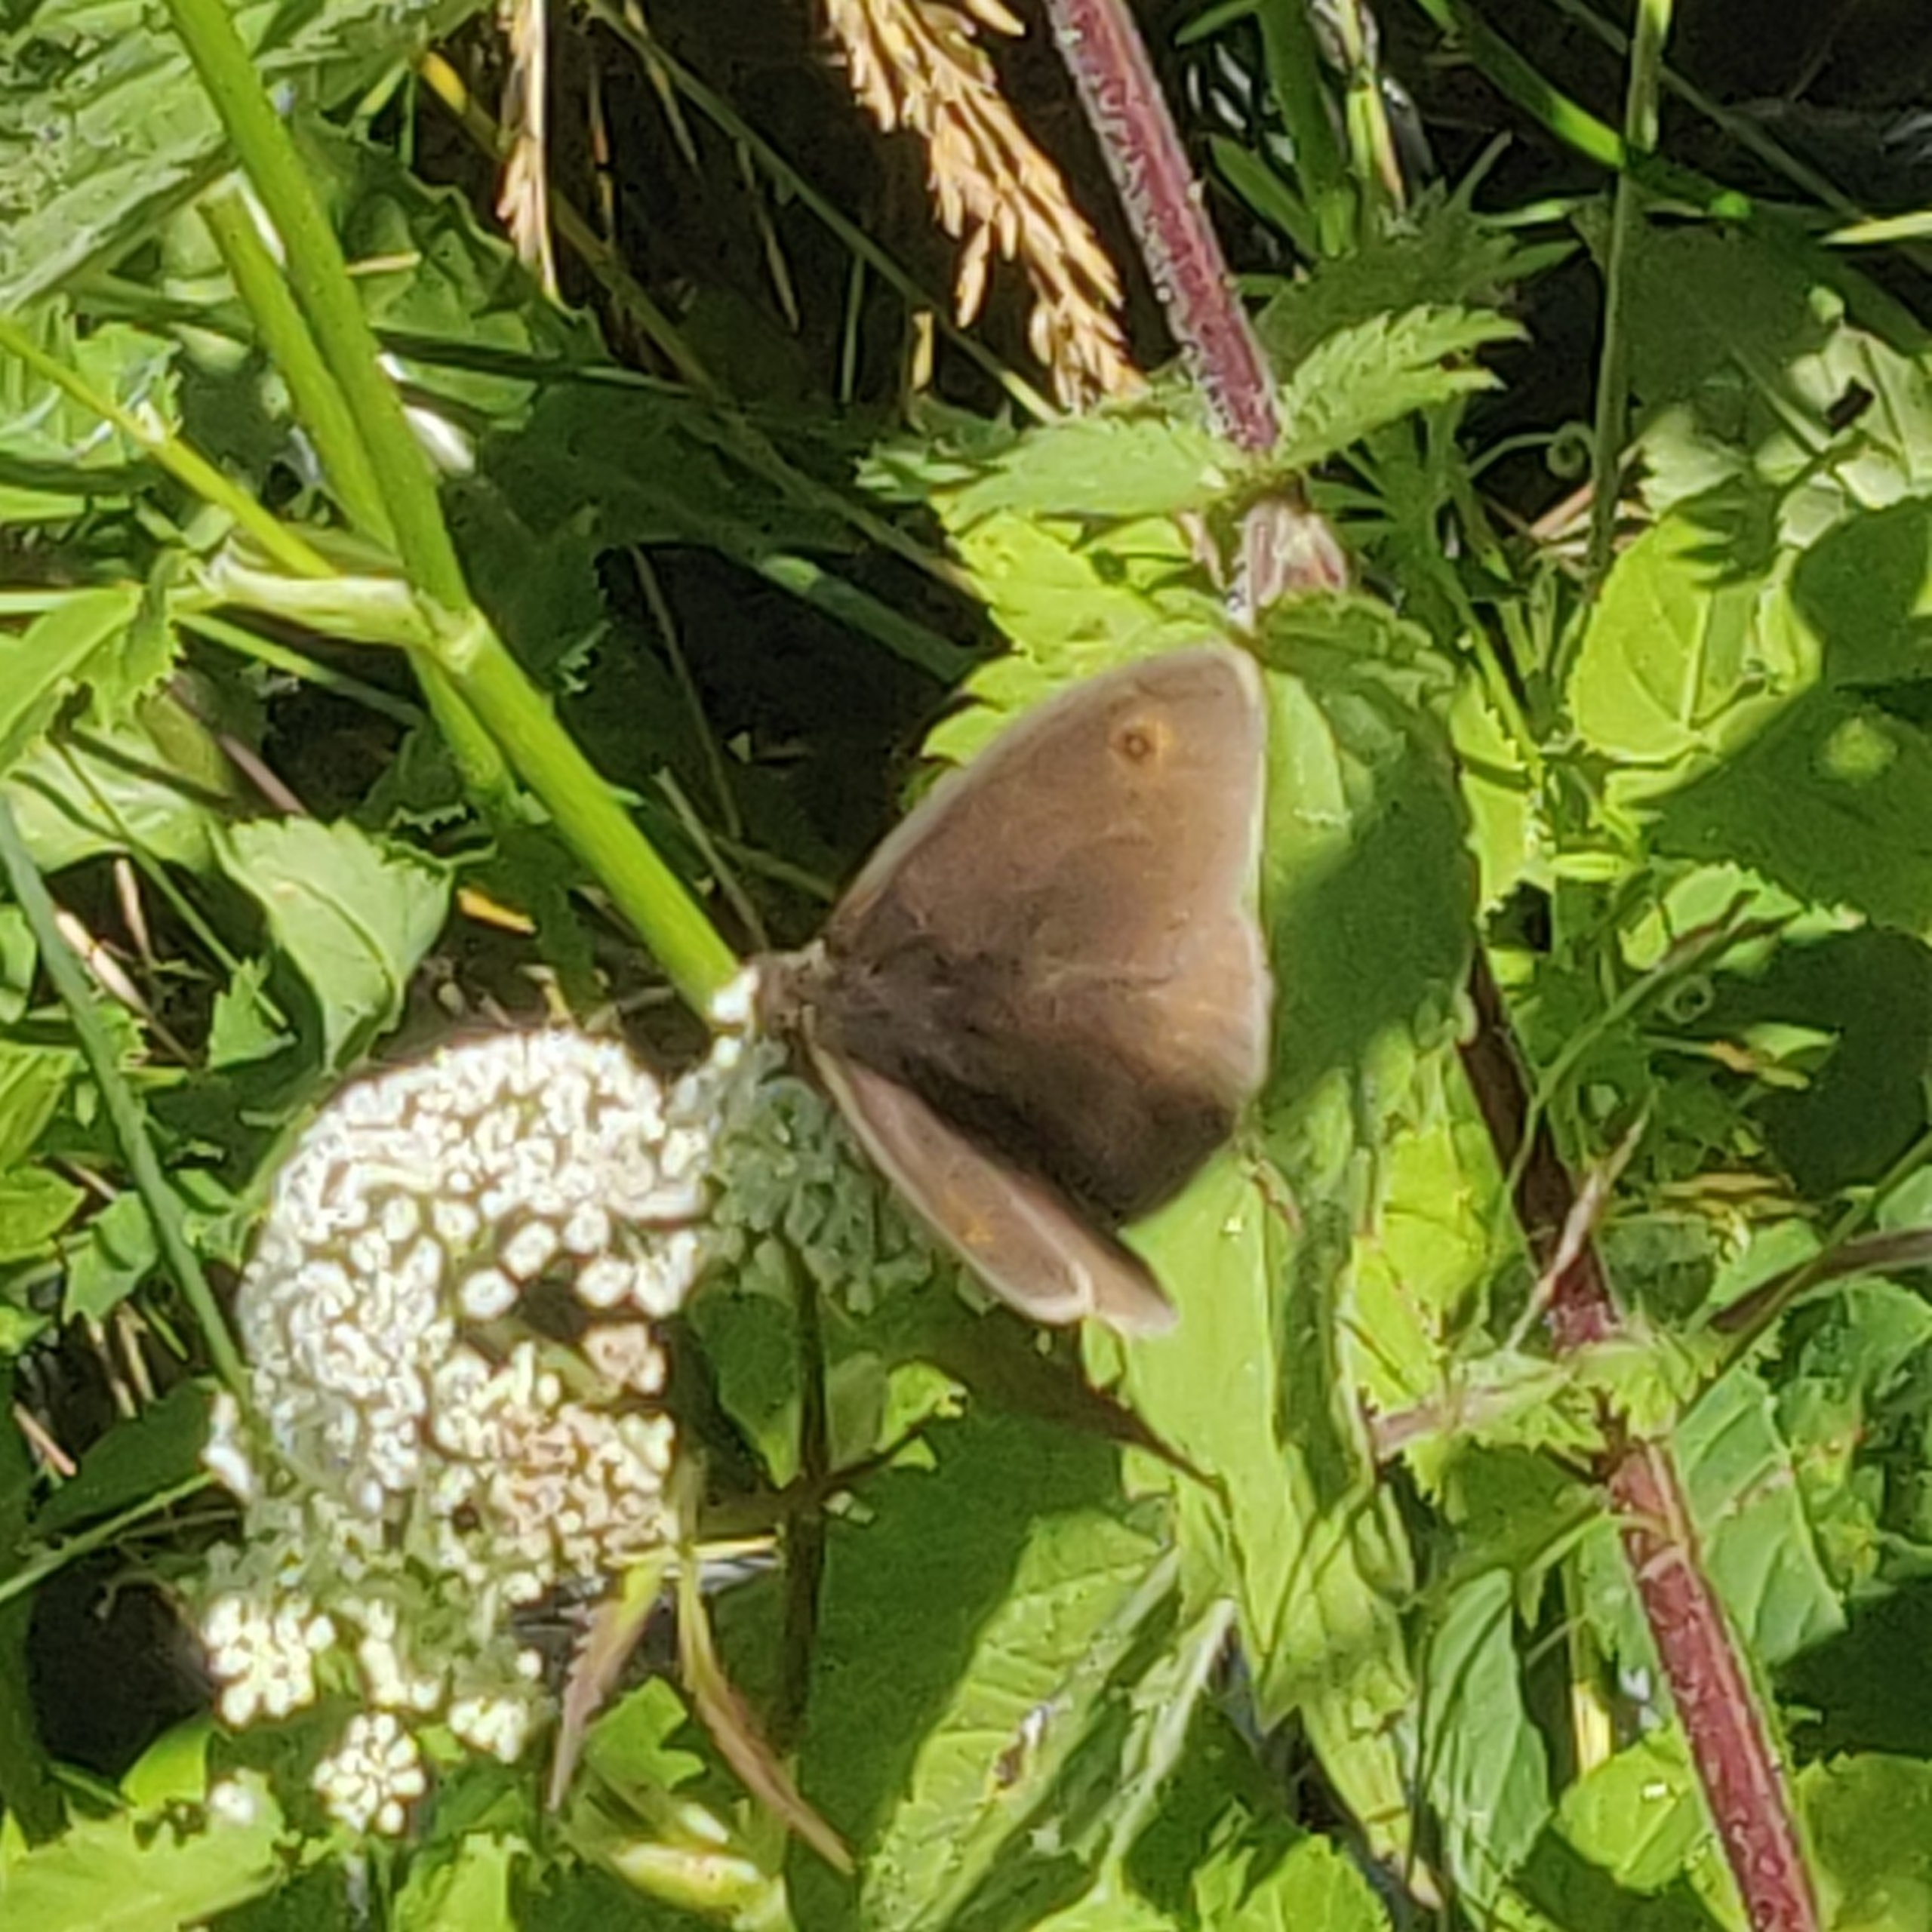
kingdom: Animalia
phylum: Arthropoda
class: Insecta
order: Lepidoptera
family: Nymphalidae
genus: Maniola
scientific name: Maniola jurtina
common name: Græsrandøje
